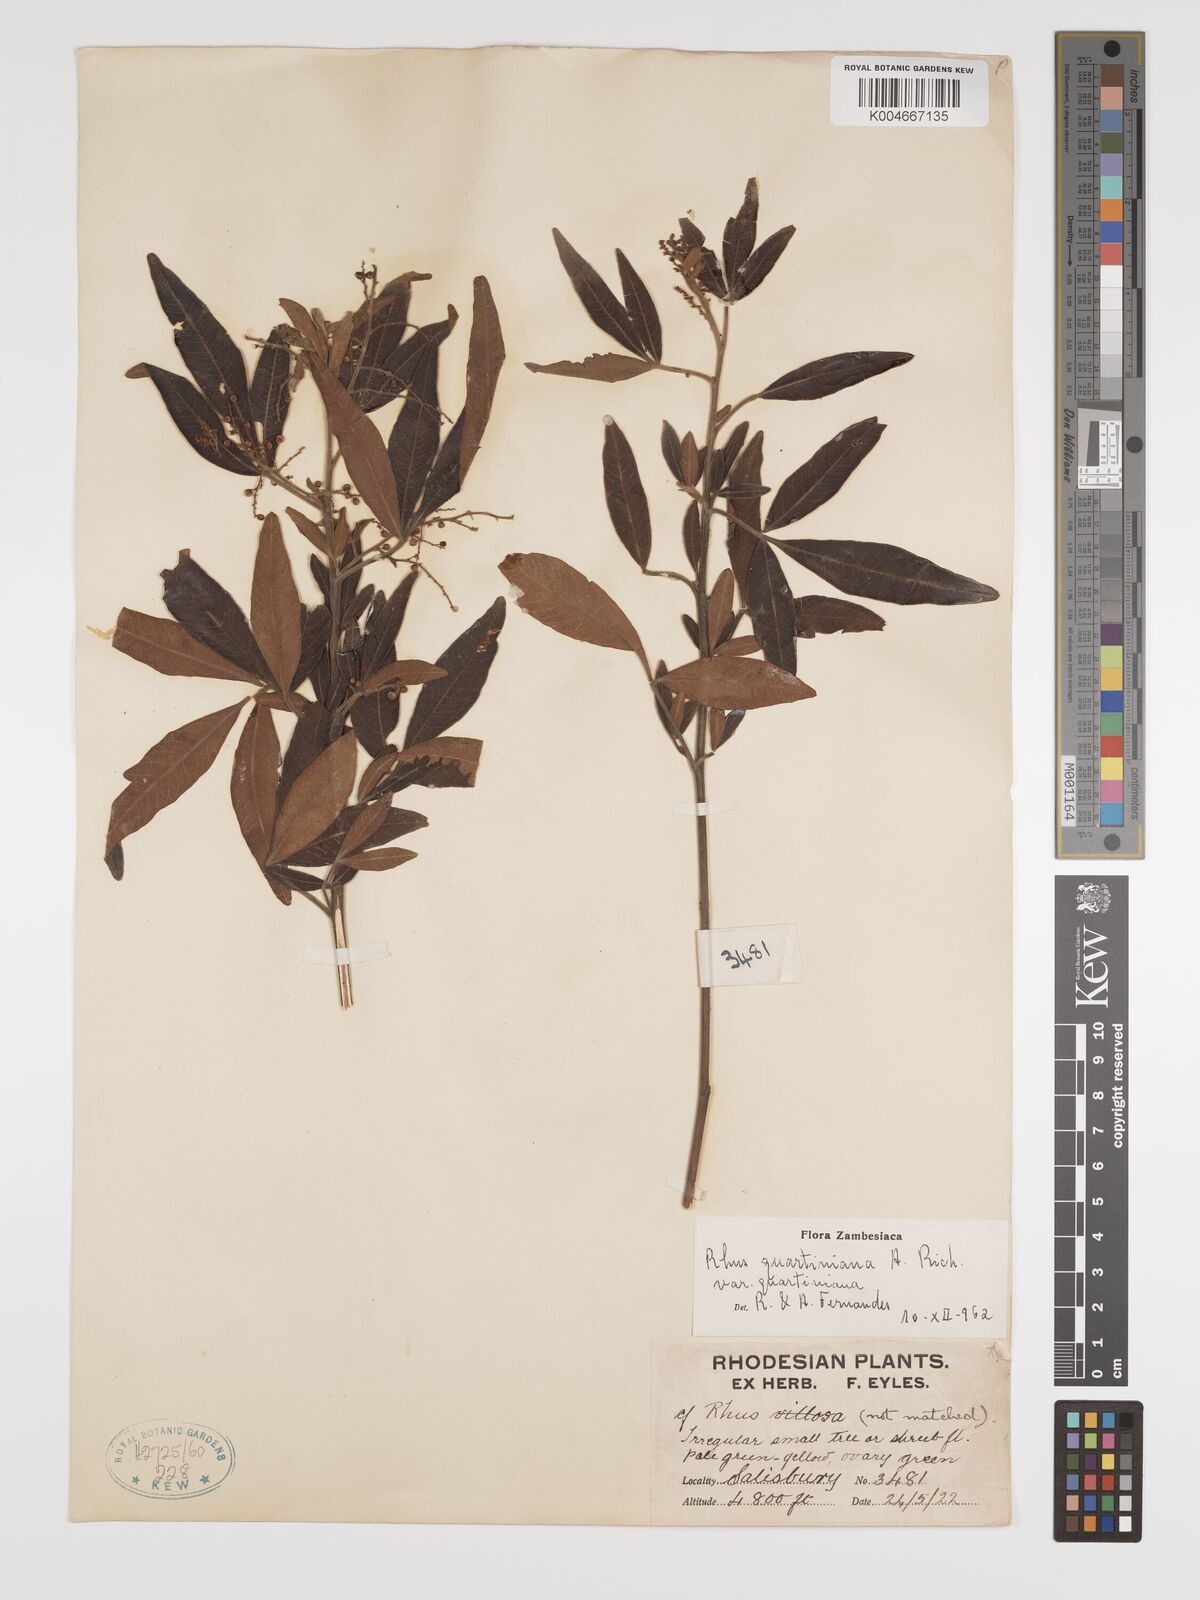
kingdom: Plantae
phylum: Tracheophyta
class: Magnoliopsida
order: Sapindales
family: Anacardiaceae
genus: Searsia
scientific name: Searsia quartiniana
